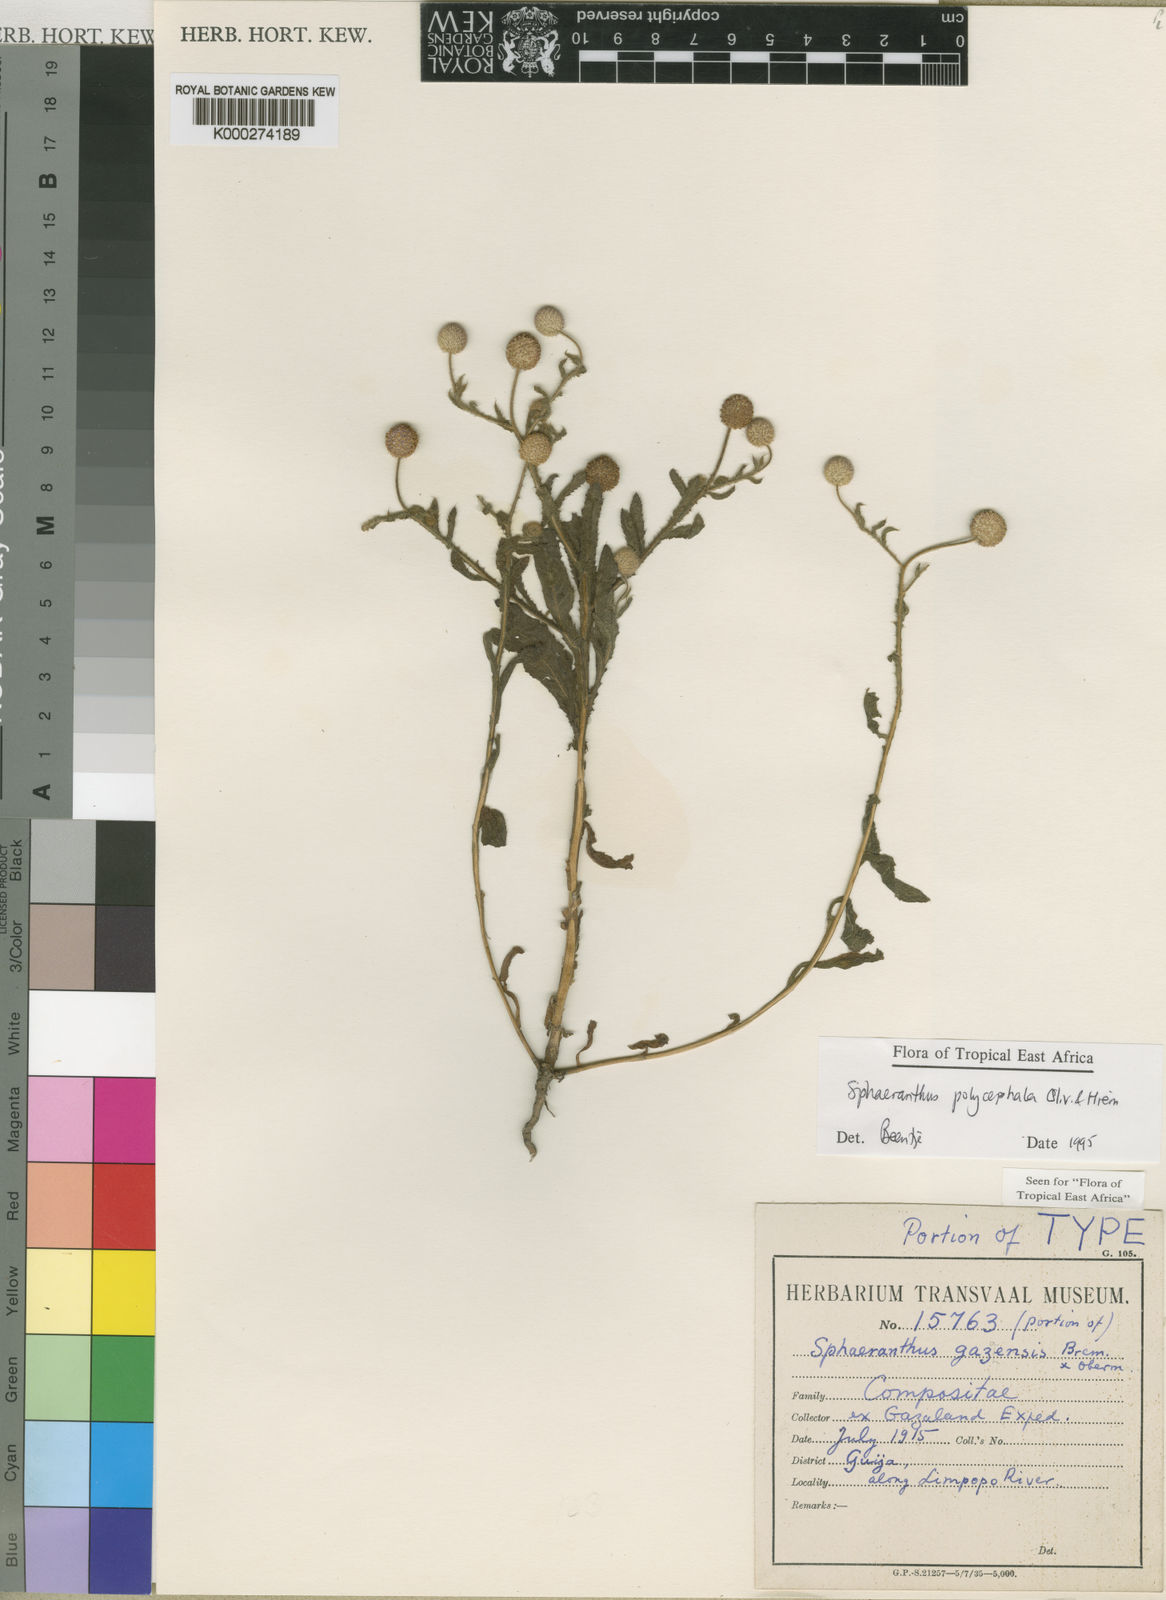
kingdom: Plantae
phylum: Tracheophyta
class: Magnoliopsida
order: Asterales
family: Asteraceae
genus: Sphaeranthus
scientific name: Sphaeranthus gazaensis
